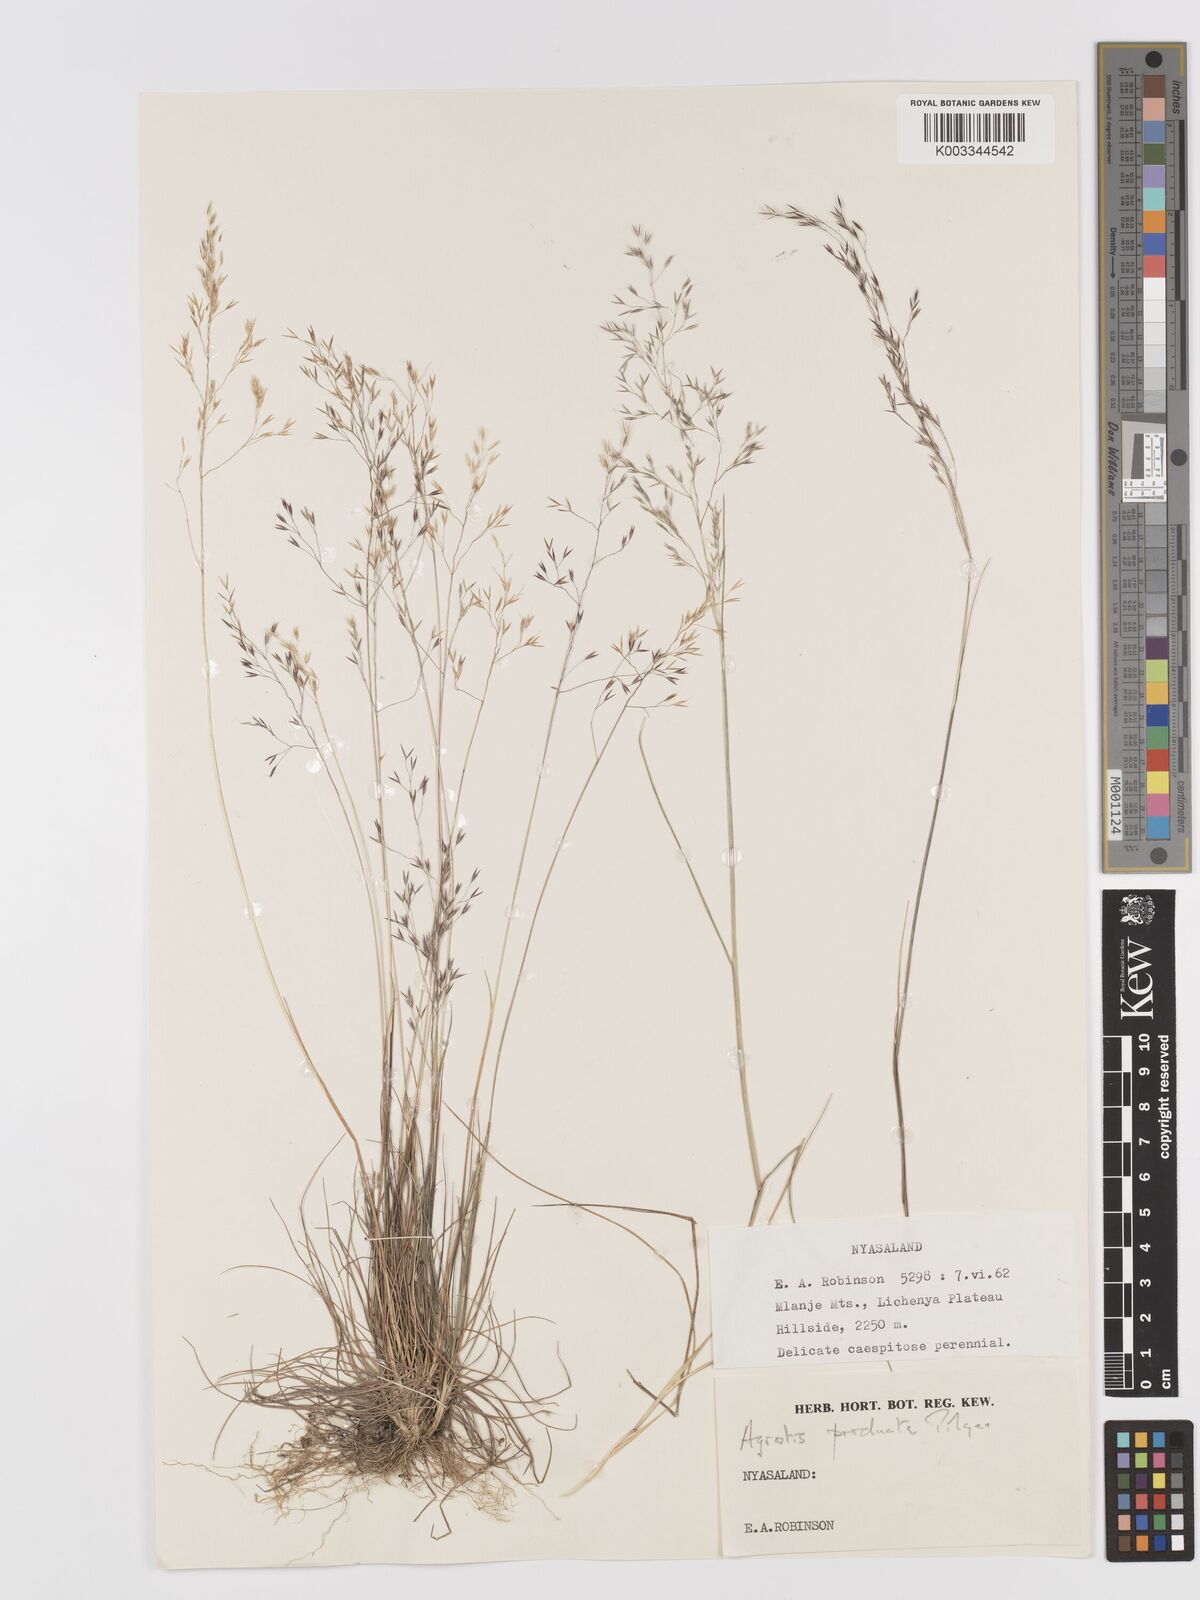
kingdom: Plantae
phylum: Tracheophyta
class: Liliopsida
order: Poales
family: Poaceae
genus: Agrostis
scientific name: Agrostis producta
